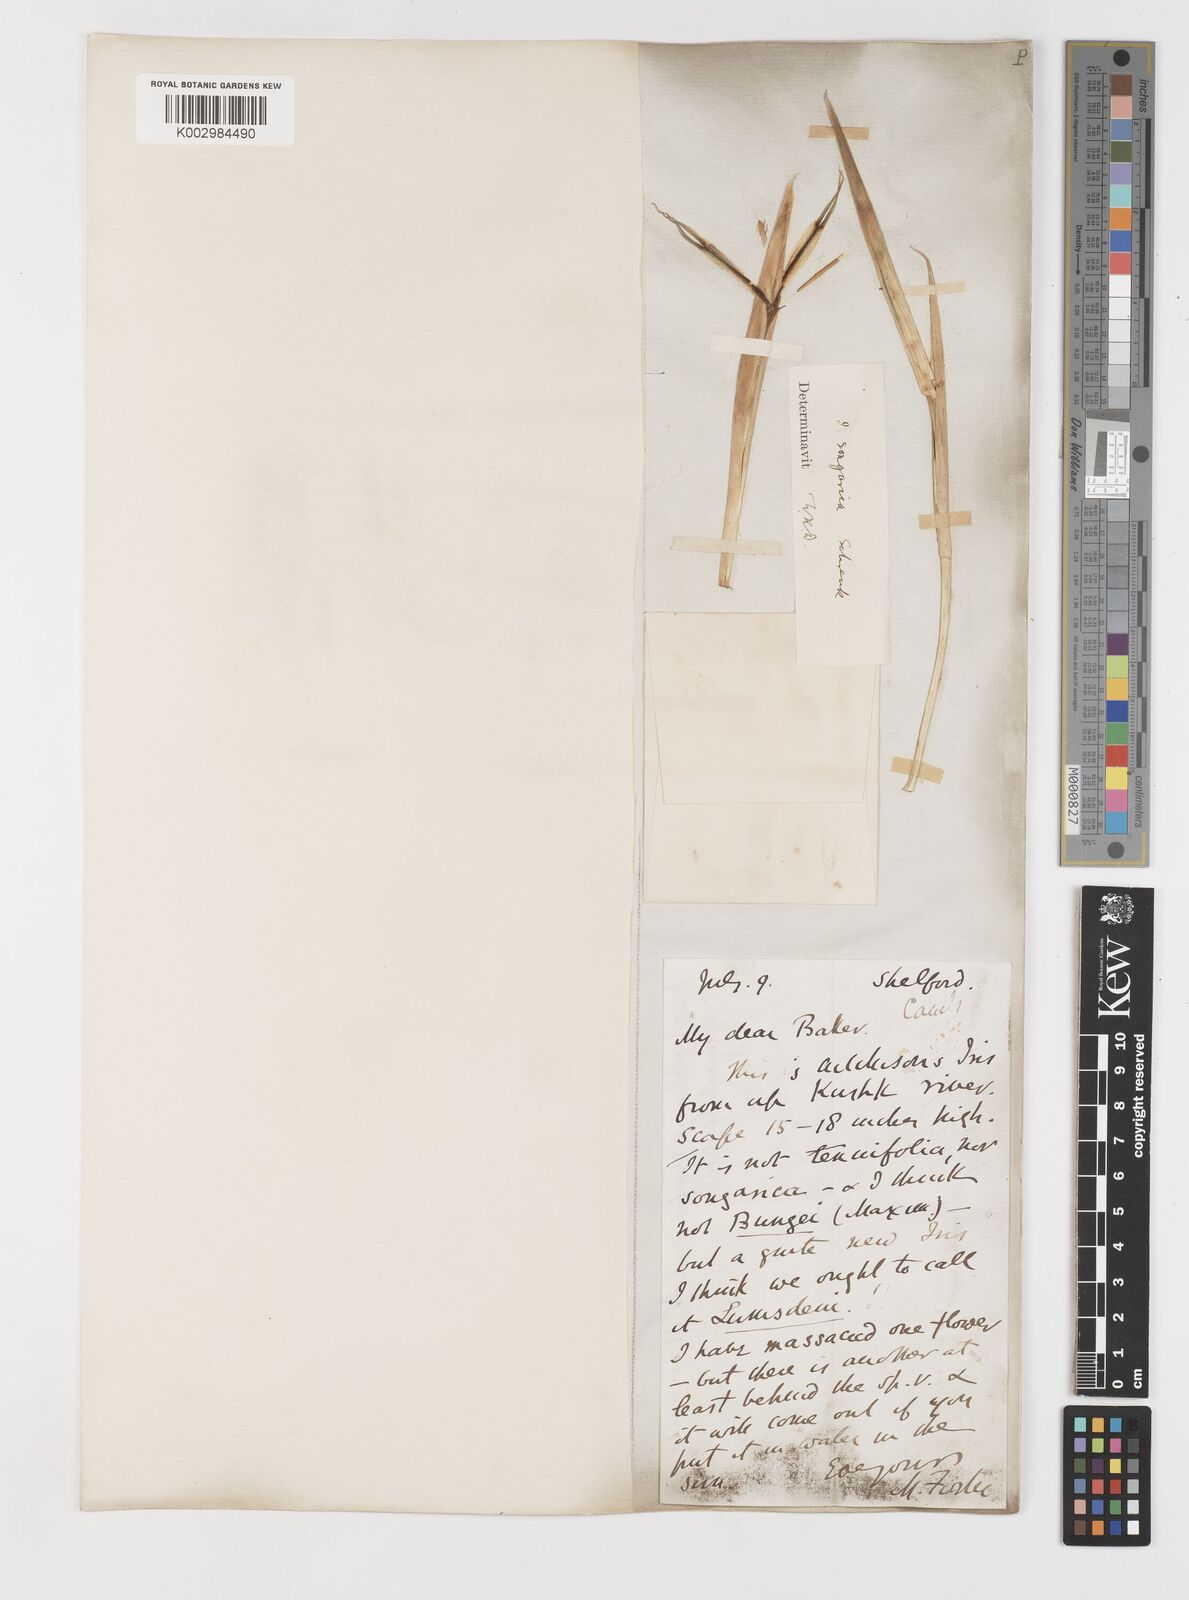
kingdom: Plantae
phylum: Tracheophyta
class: Liliopsida
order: Asparagales
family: Iridaceae
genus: Iris
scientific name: Iris songarica
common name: Songar iris
